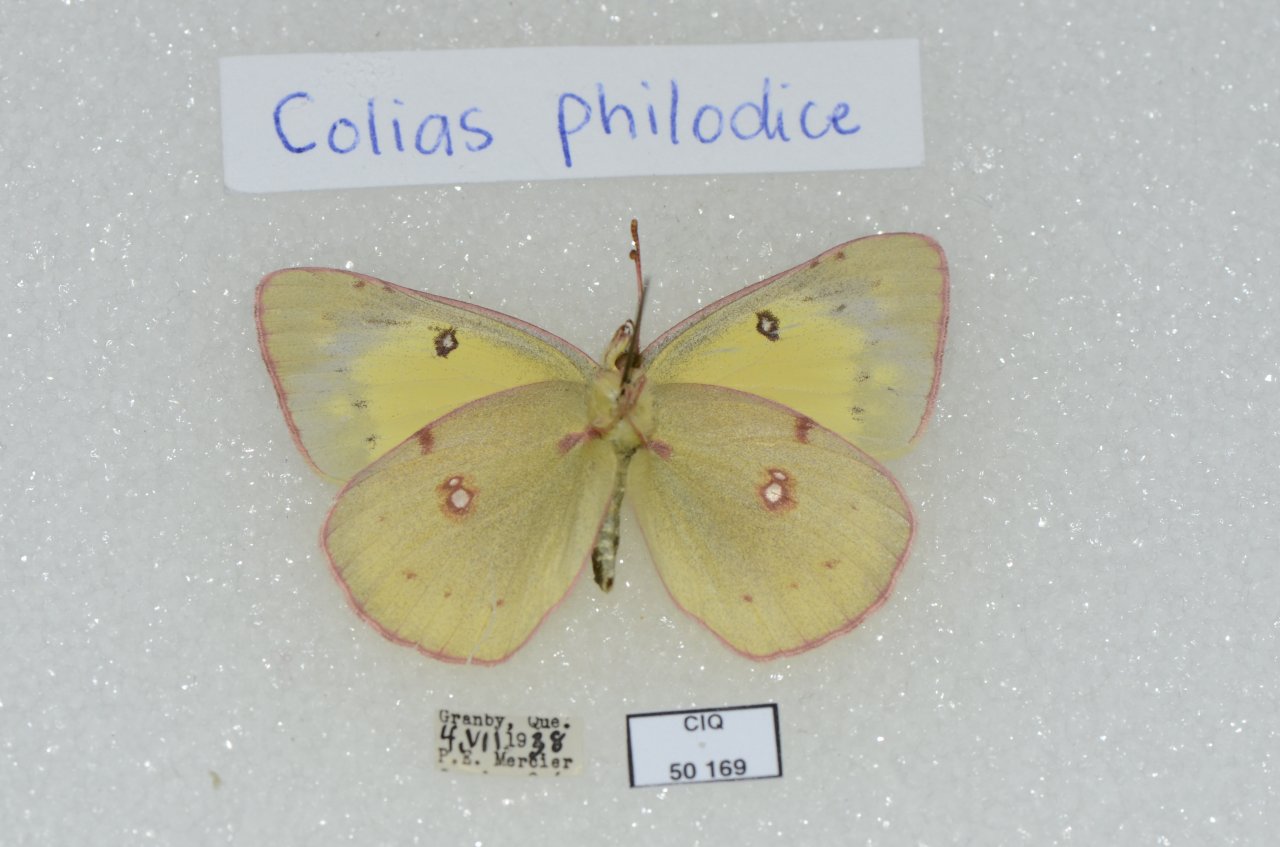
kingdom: Animalia
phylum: Arthropoda
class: Insecta
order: Lepidoptera
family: Pieridae
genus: Colias
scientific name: Colias philodice
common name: Clouded Sulphur
